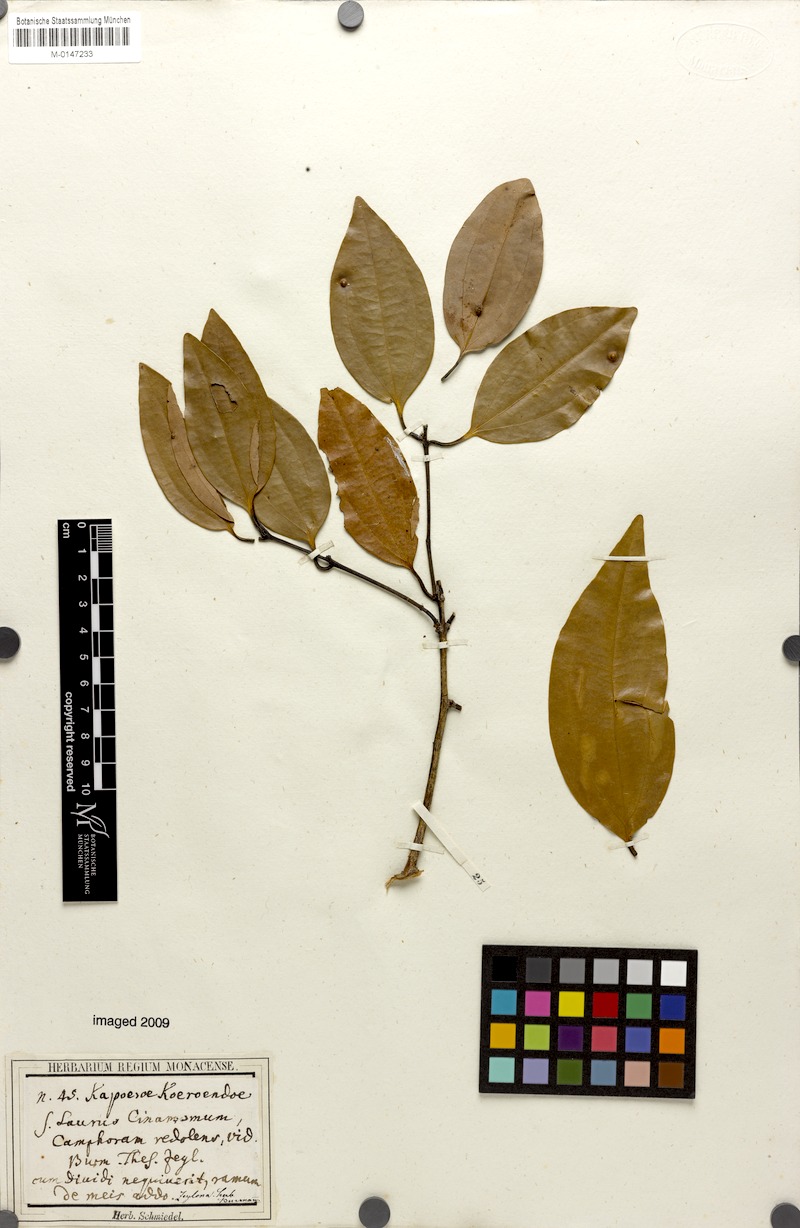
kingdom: Plantae
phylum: Tracheophyta
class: Magnoliopsida
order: Laurales
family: Lauraceae
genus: Cinnamomum
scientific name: Cinnamomum verum
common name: Cinnamon
